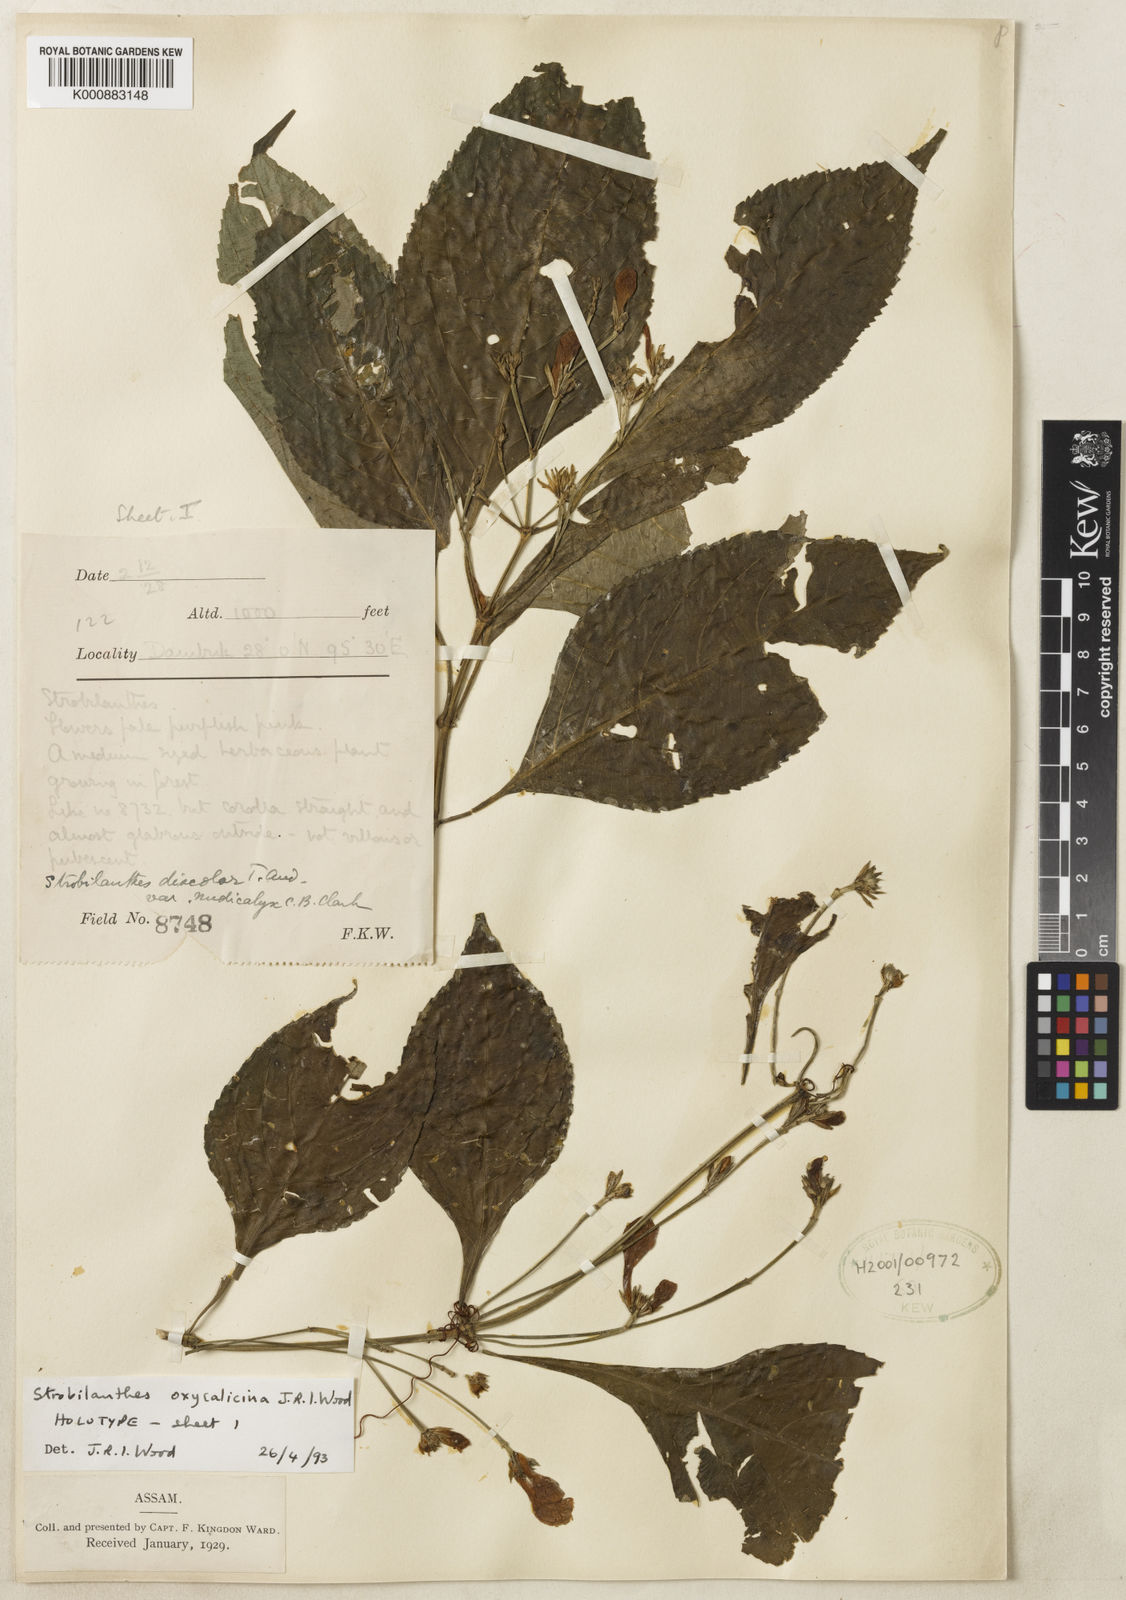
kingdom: Plantae
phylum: Tracheophyta
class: Magnoliopsida
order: Lamiales
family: Acanthaceae
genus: Strobilanthes
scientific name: Strobilanthes oxycalycina
